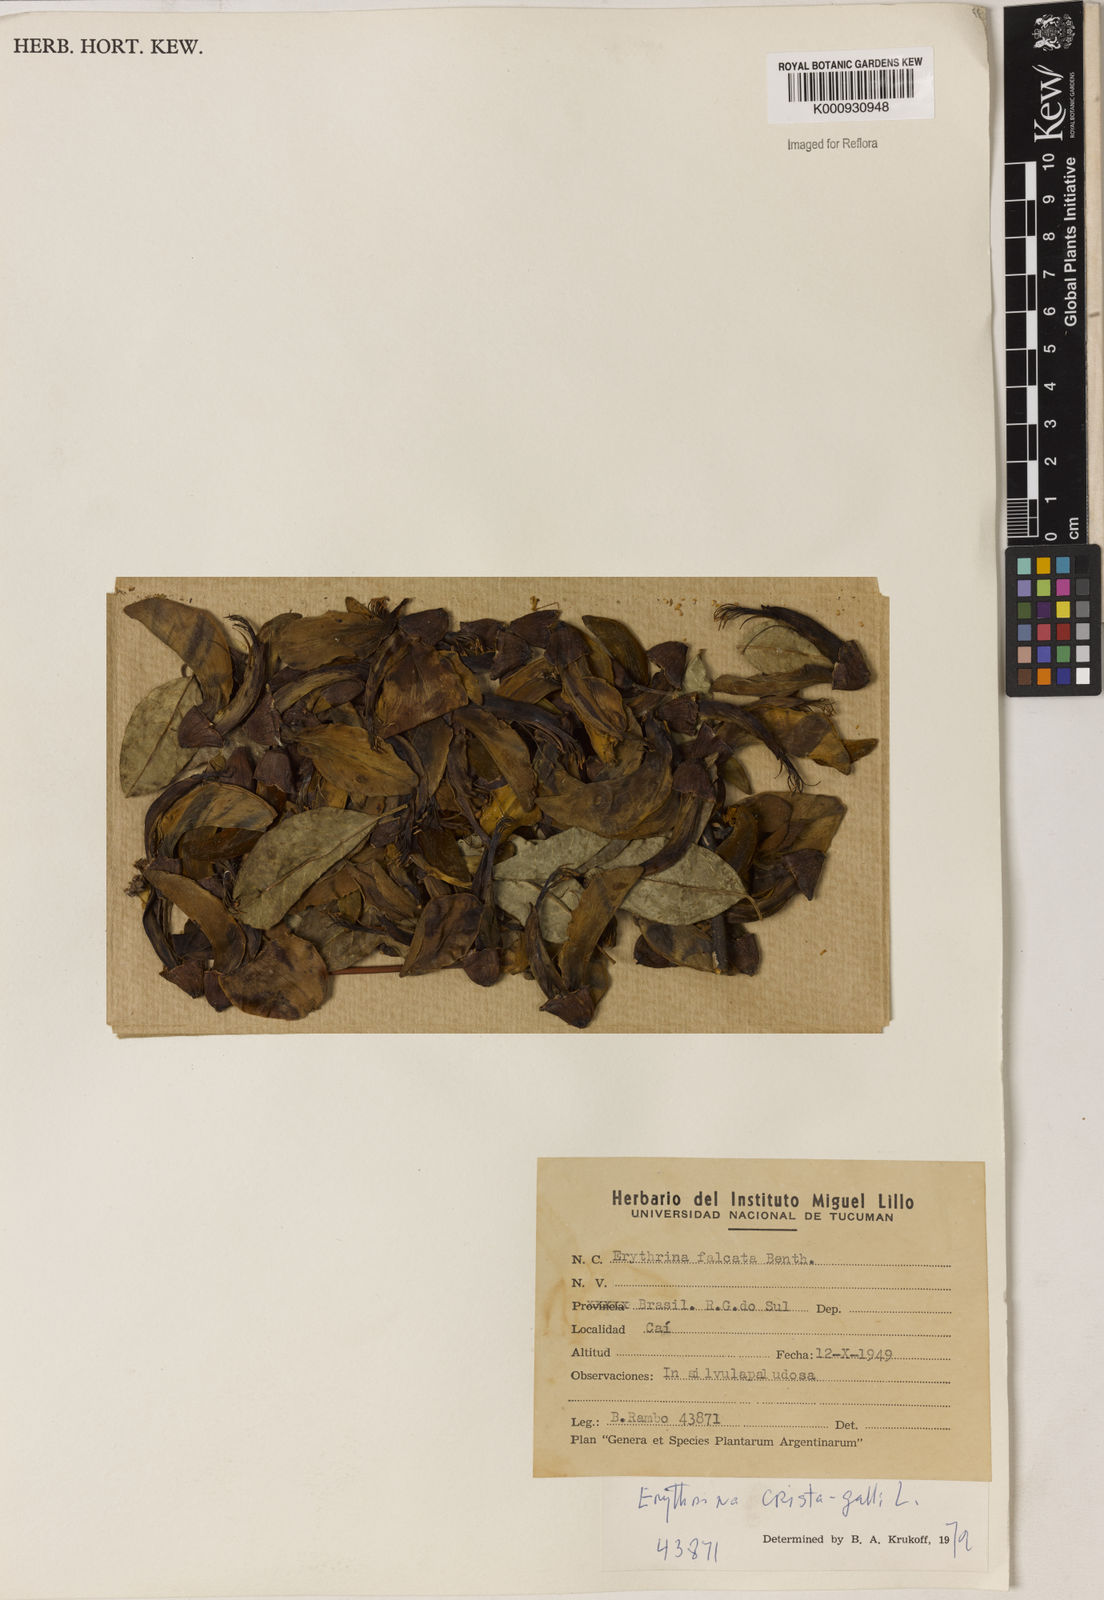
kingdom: Plantae
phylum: Tracheophyta
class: Magnoliopsida
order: Fabales
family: Fabaceae
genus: Erythrina
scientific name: Erythrina crista-galli
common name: Cockspur coral tree
